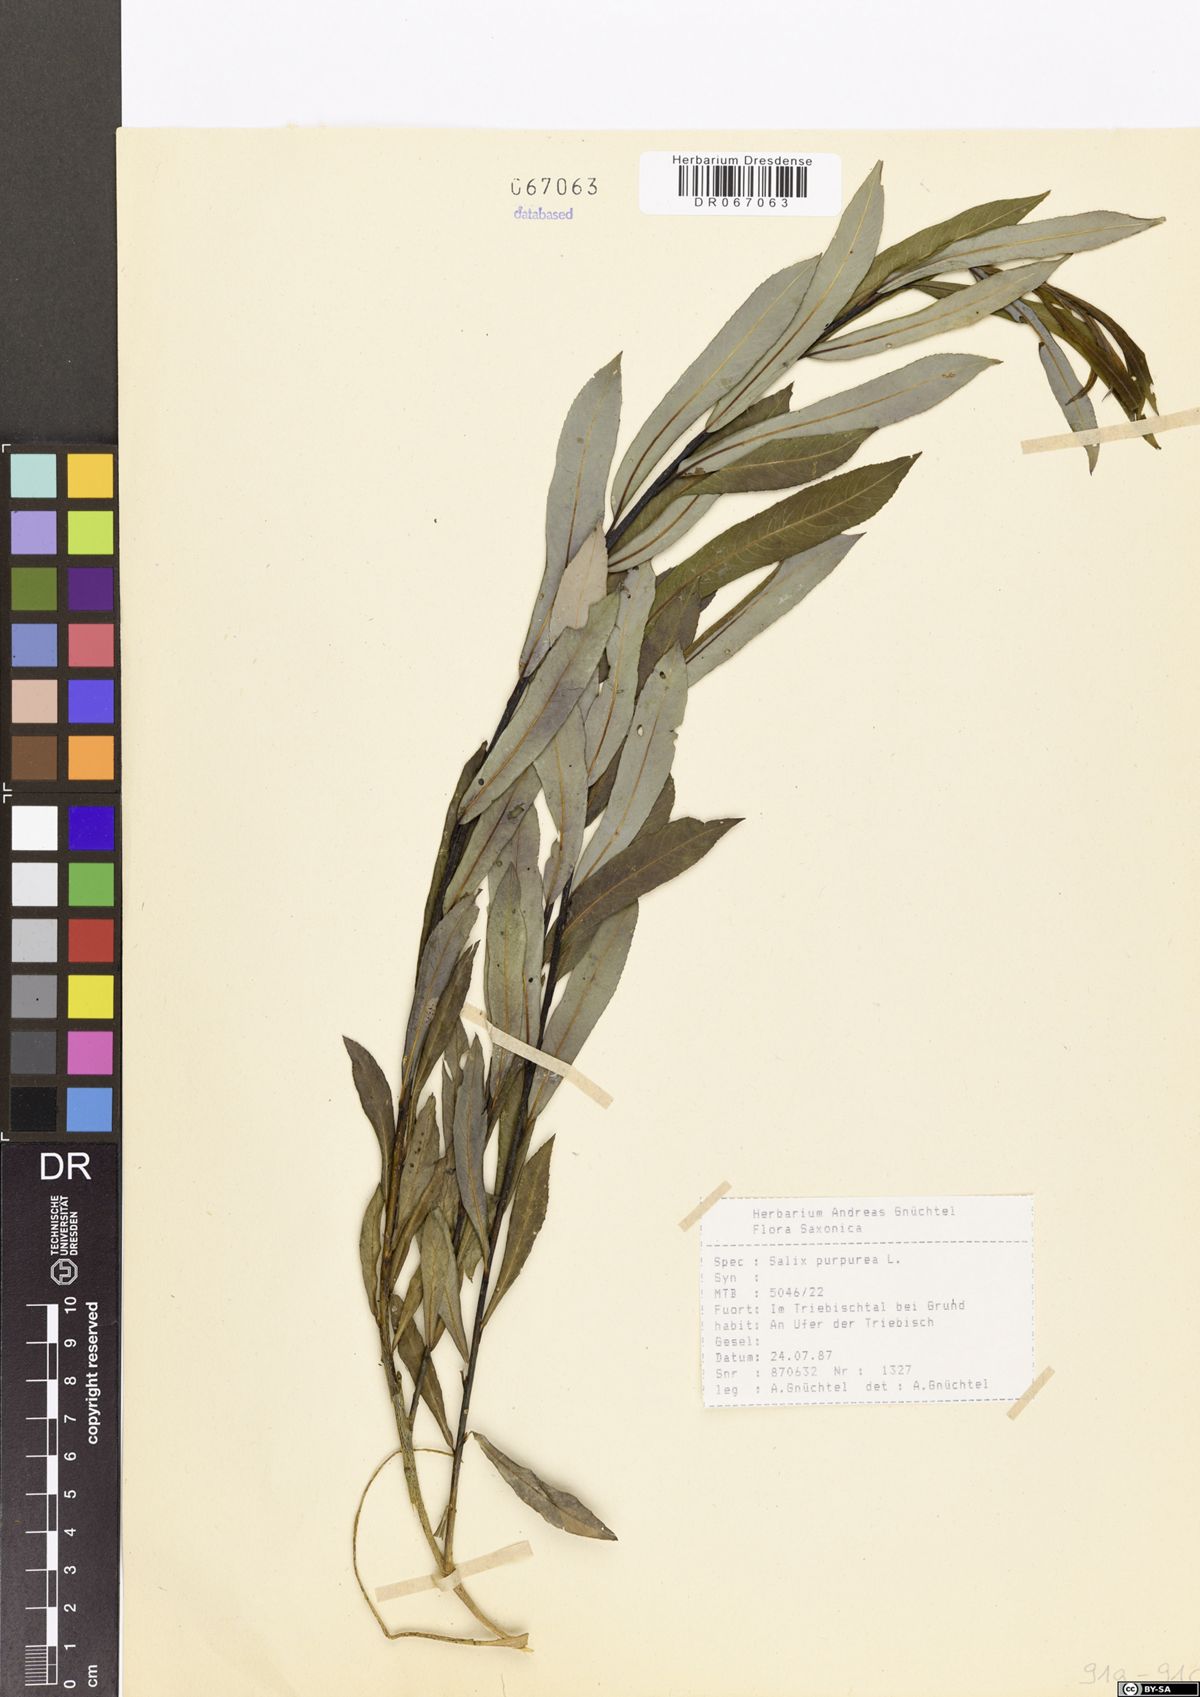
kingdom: Plantae
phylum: Tracheophyta
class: Magnoliopsida
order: Malpighiales
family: Salicaceae
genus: Salix
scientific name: Salix purpurea
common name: Purple willow
